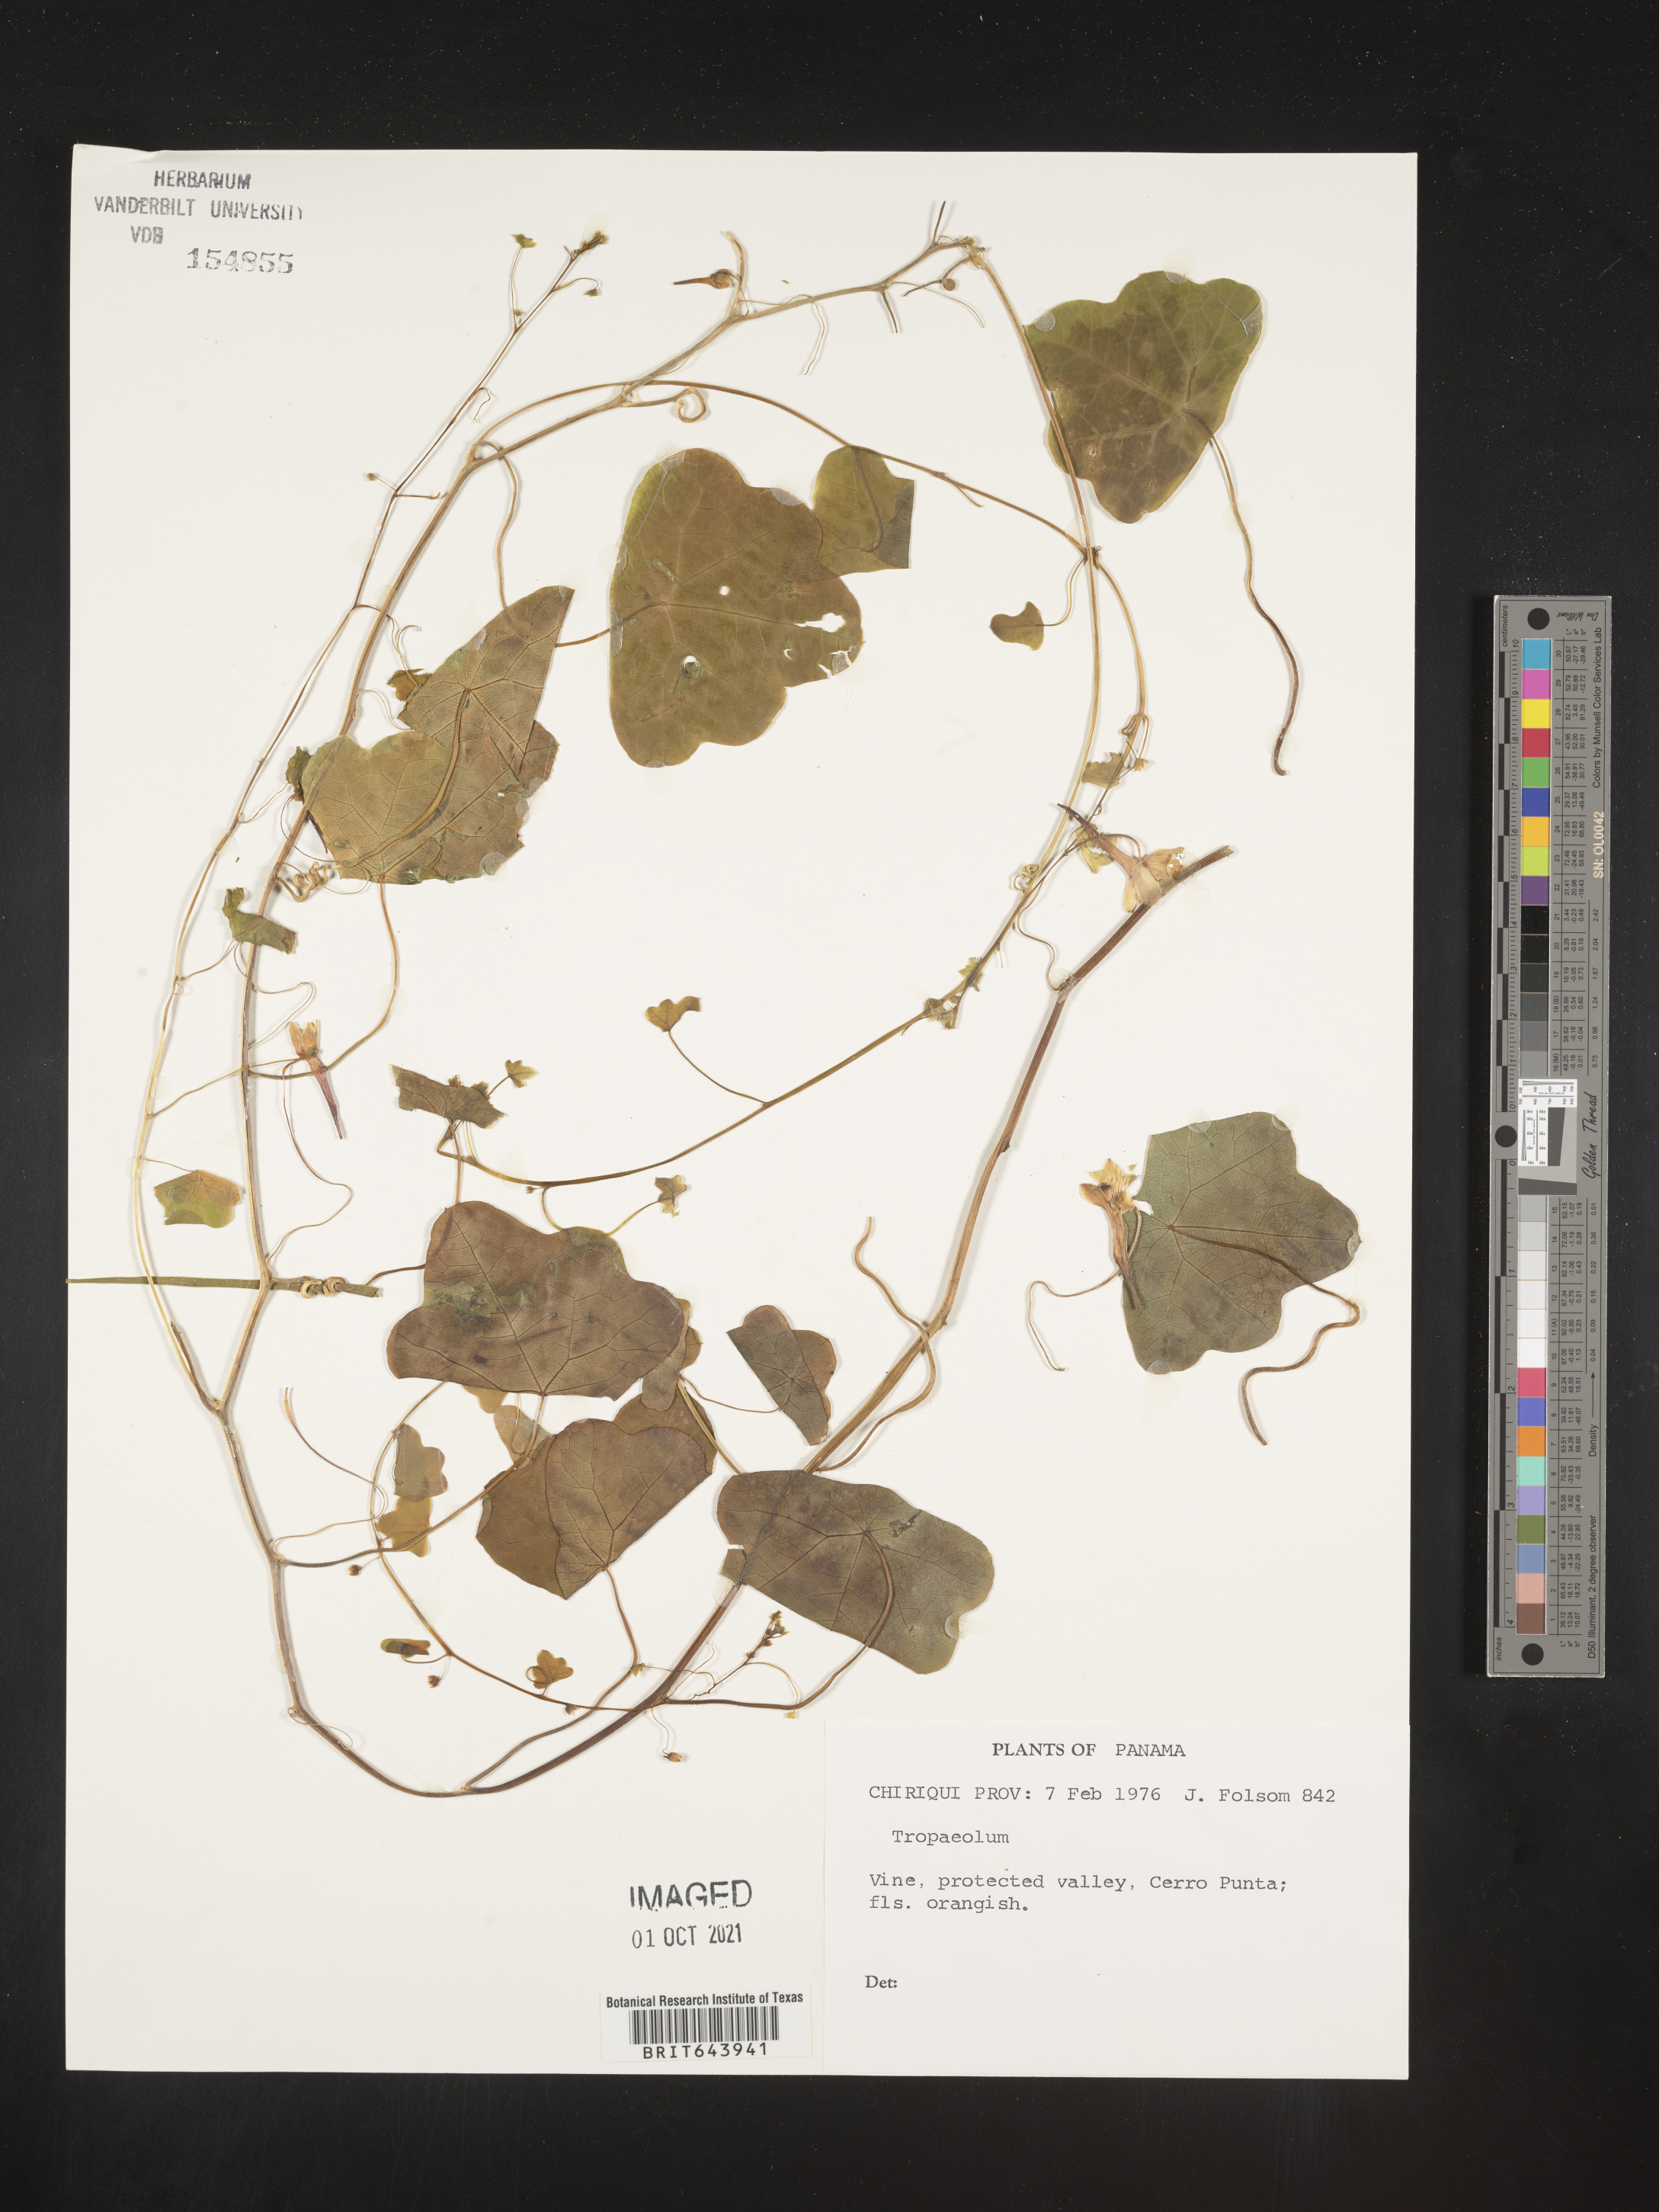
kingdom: Plantae
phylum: Tracheophyta
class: Magnoliopsida
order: Brassicales
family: Tropaeolaceae
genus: Tropaeolum
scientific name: Tropaeolum
